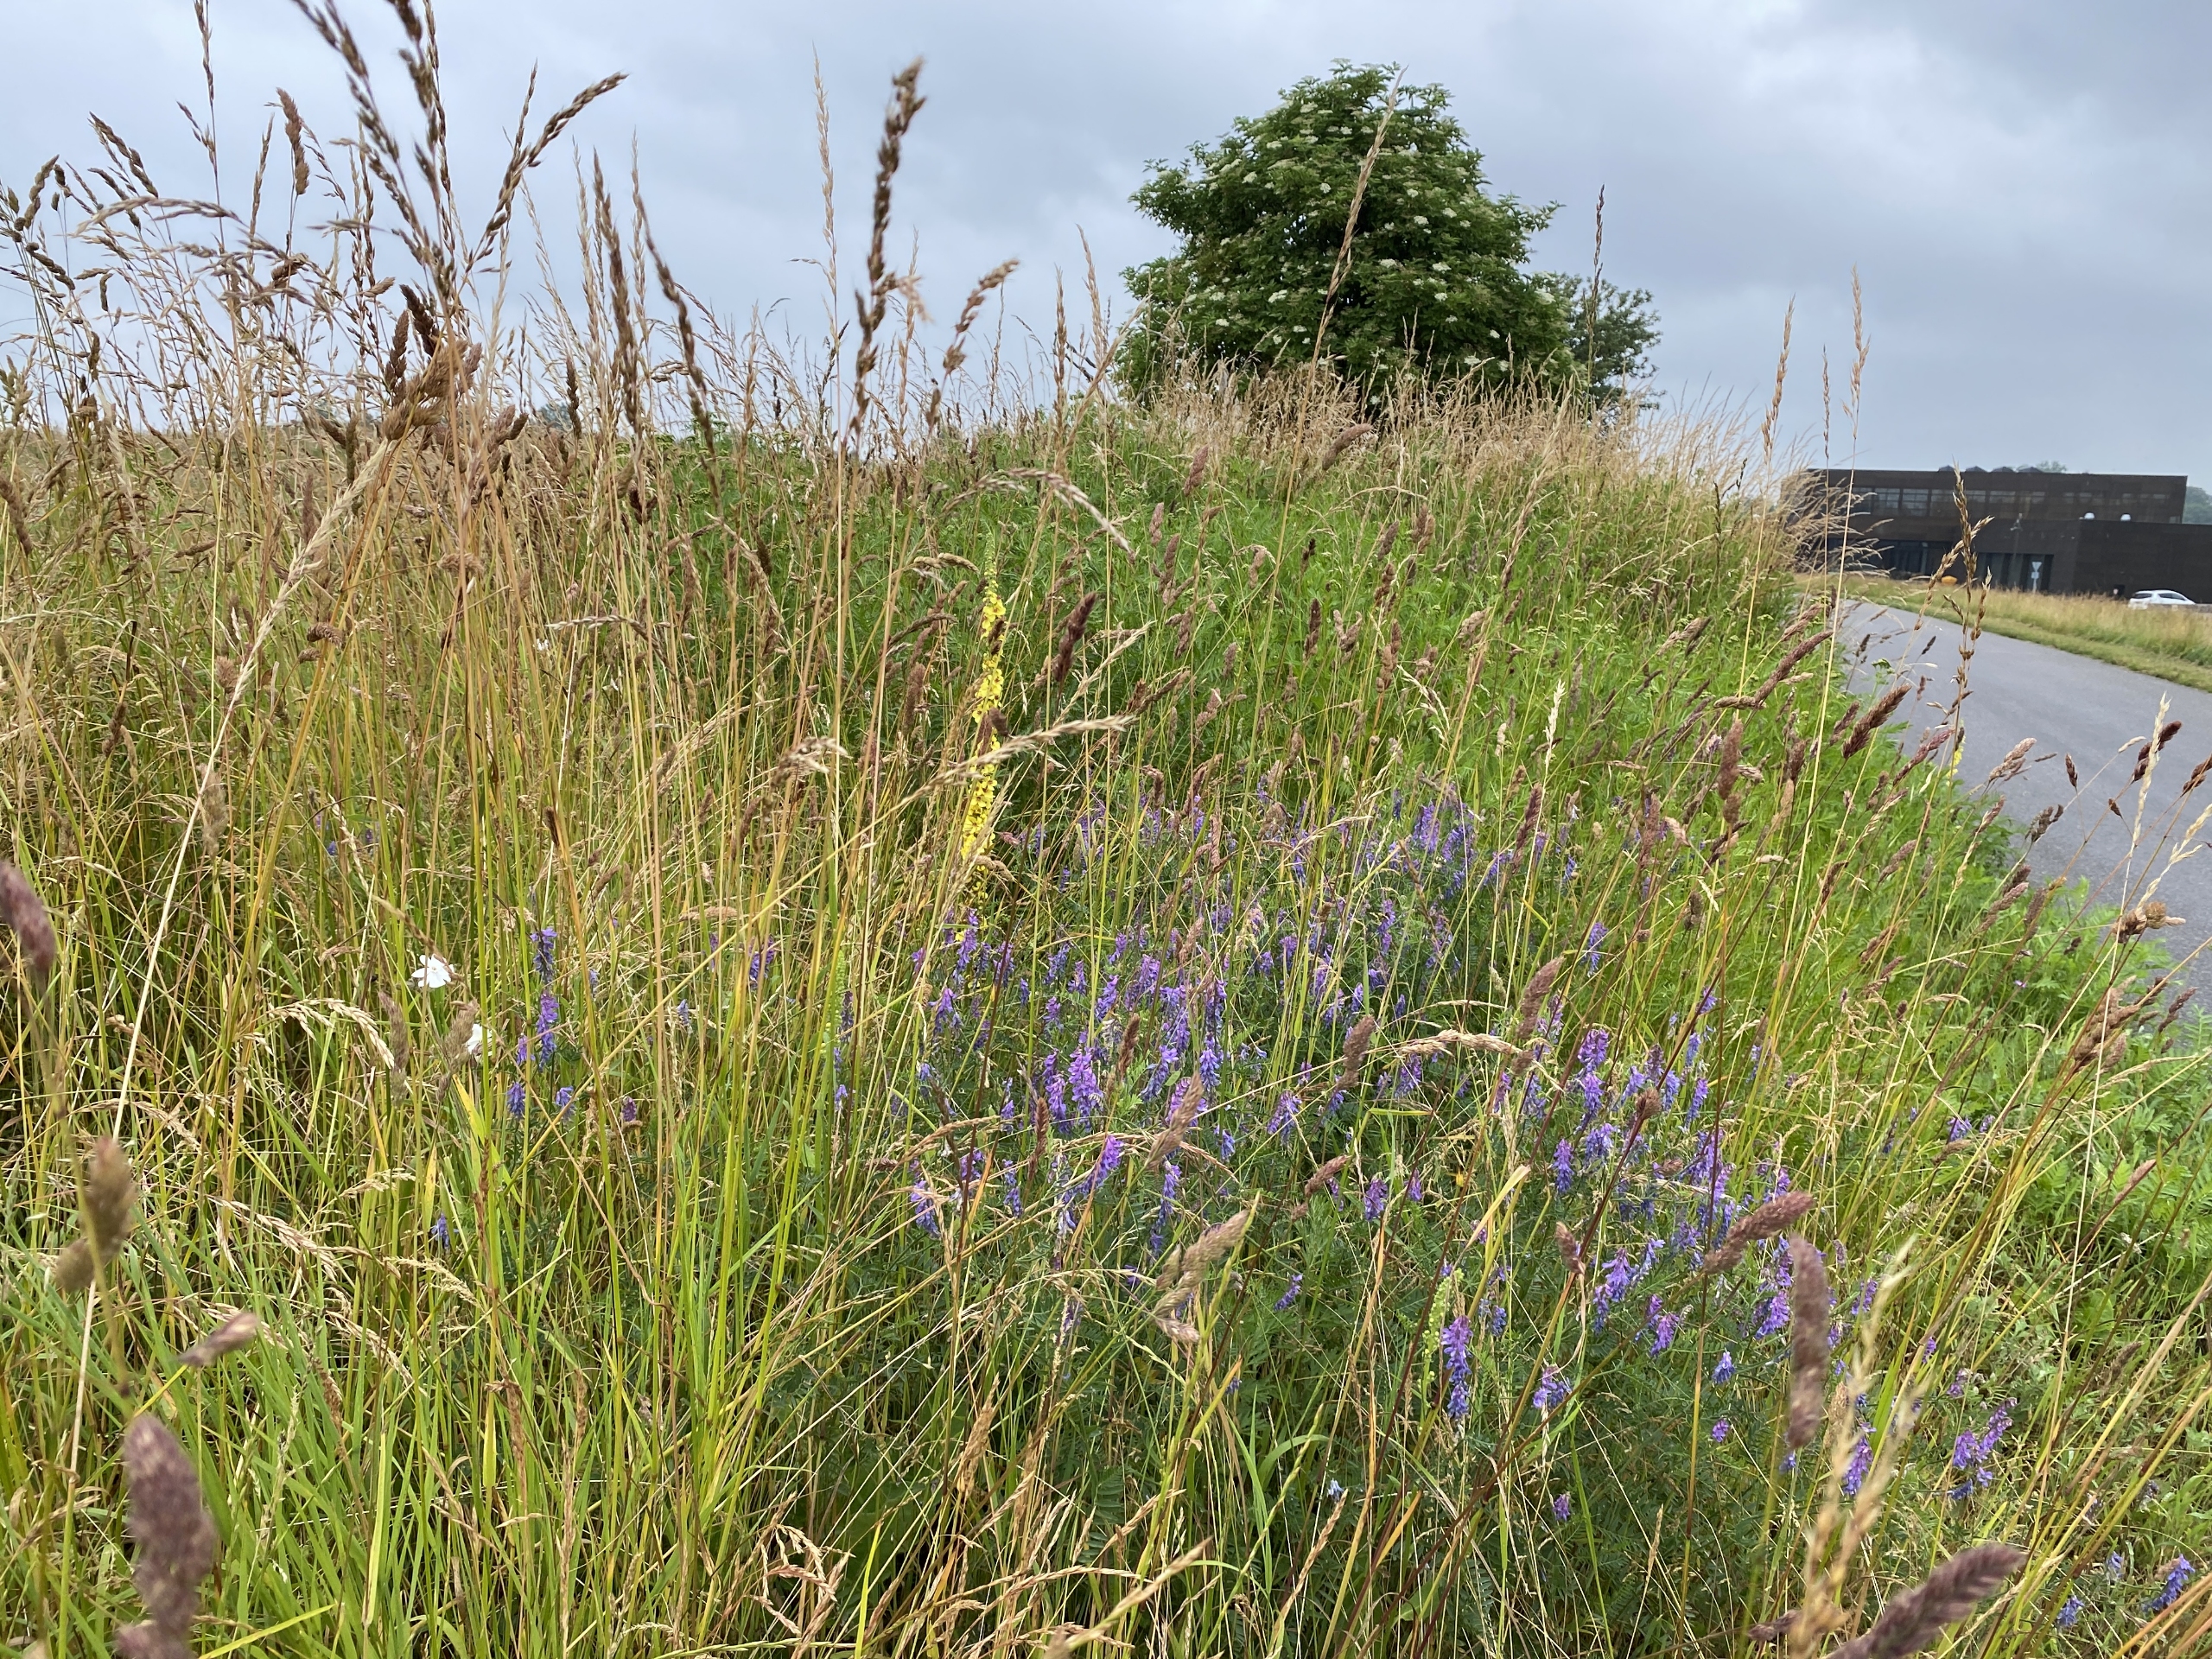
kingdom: Plantae
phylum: Tracheophyta
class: Magnoliopsida
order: Fabales
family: Fabaceae
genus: Vicia
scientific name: Vicia cracca
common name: Muse-vikke
